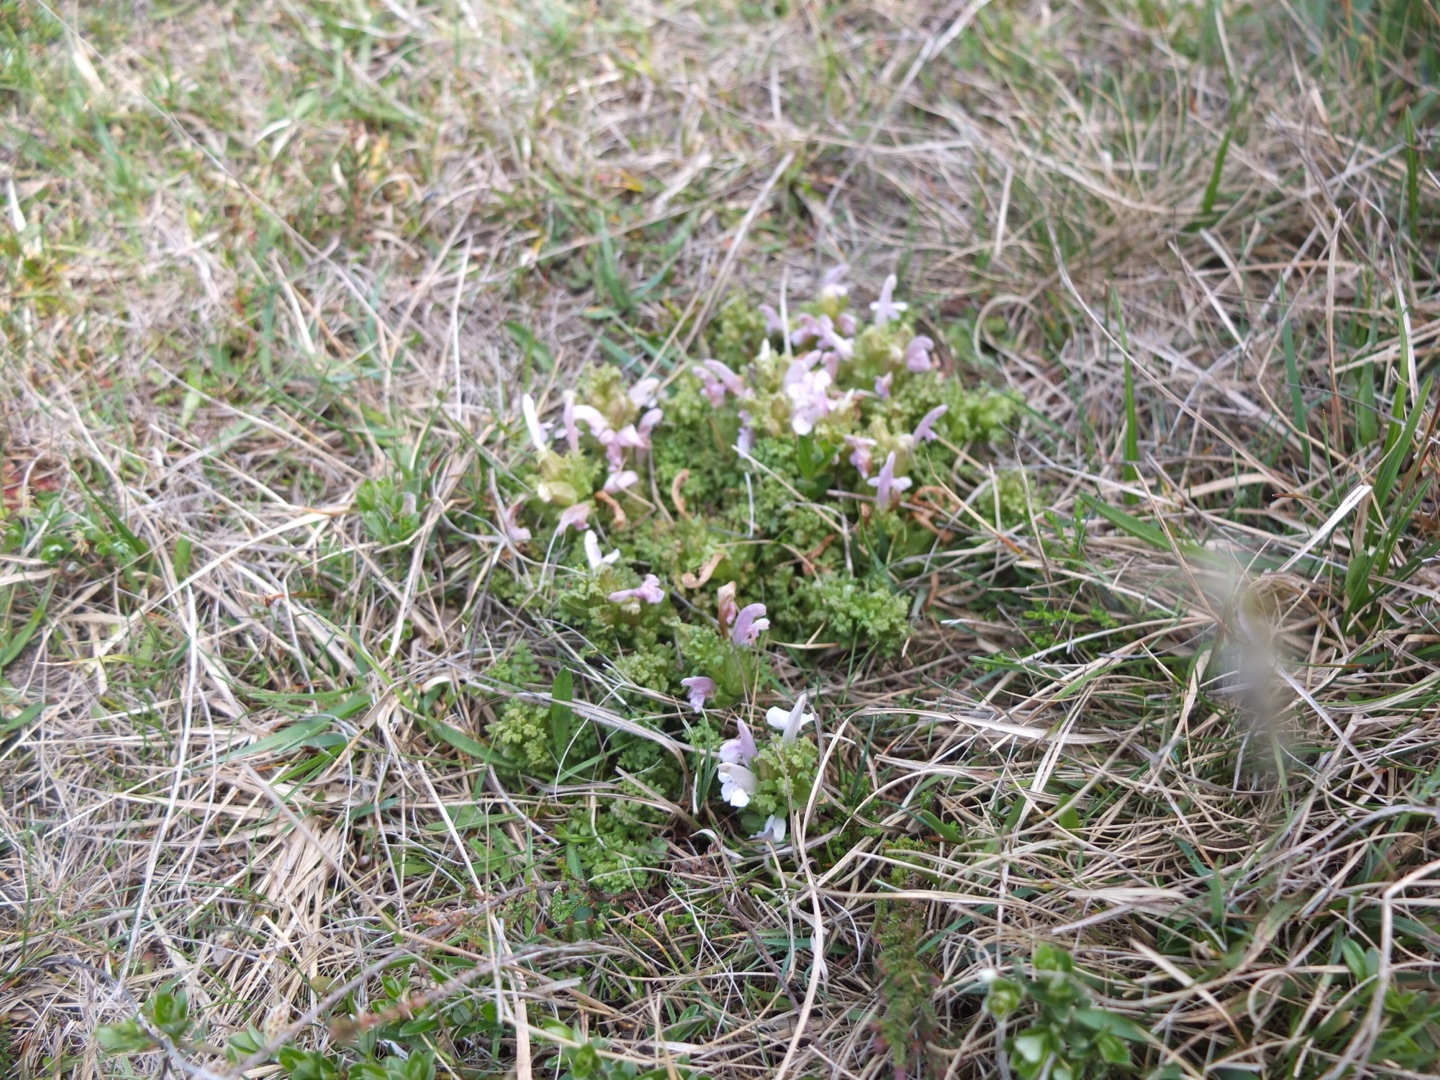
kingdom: Plantae
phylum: Tracheophyta
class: Magnoliopsida
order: Lamiales
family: Orobanchaceae
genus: Pedicularis
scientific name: Pedicularis sylvatica
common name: Mose-troldurt
